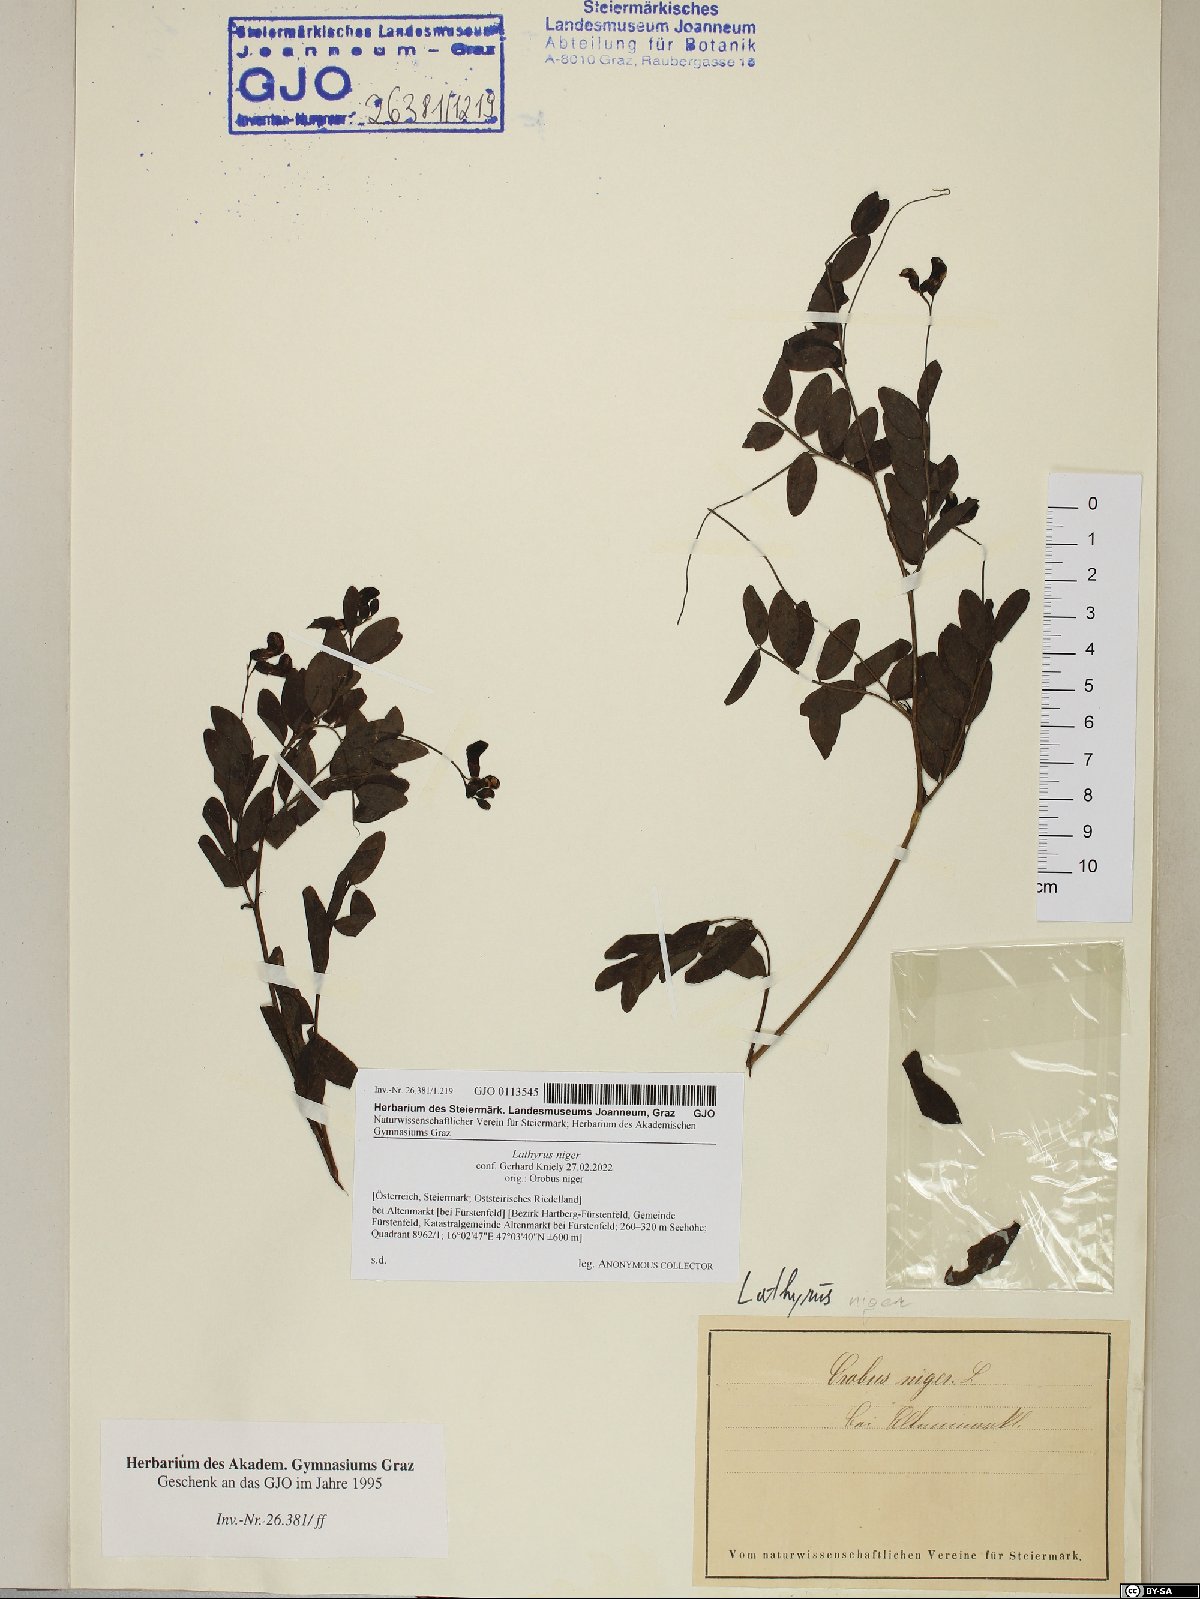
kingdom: Plantae
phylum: Tracheophyta
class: Magnoliopsida
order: Fabales
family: Fabaceae
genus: Lathyrus
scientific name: Lathyrus niger
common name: Black pea
